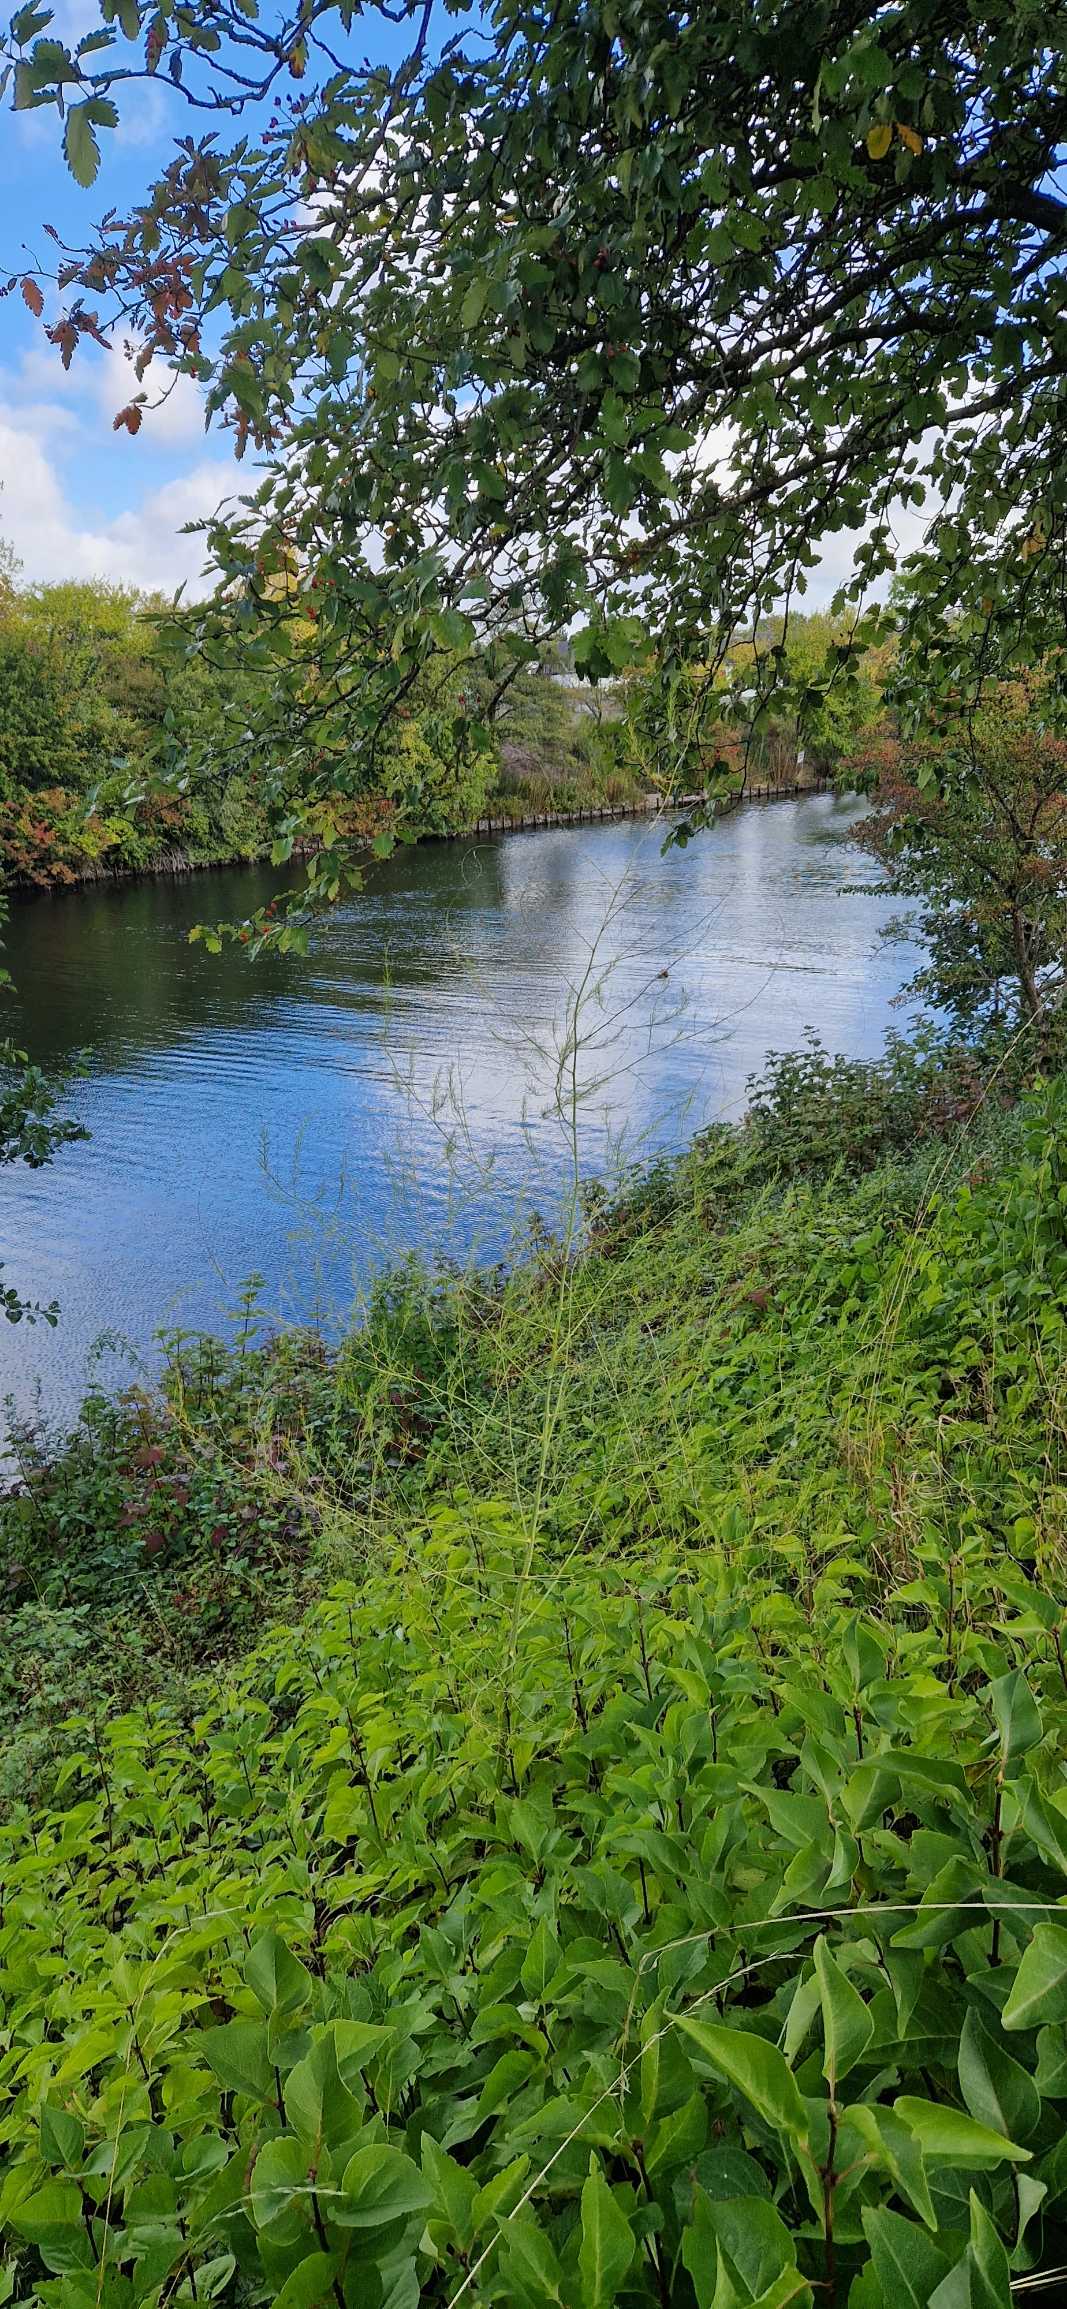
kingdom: Plantae
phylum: Tracheophyta
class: Liliopsida
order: Asparagales
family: Asparagaceae
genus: Asparagus
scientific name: Asparagus officinalis
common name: Asparges
